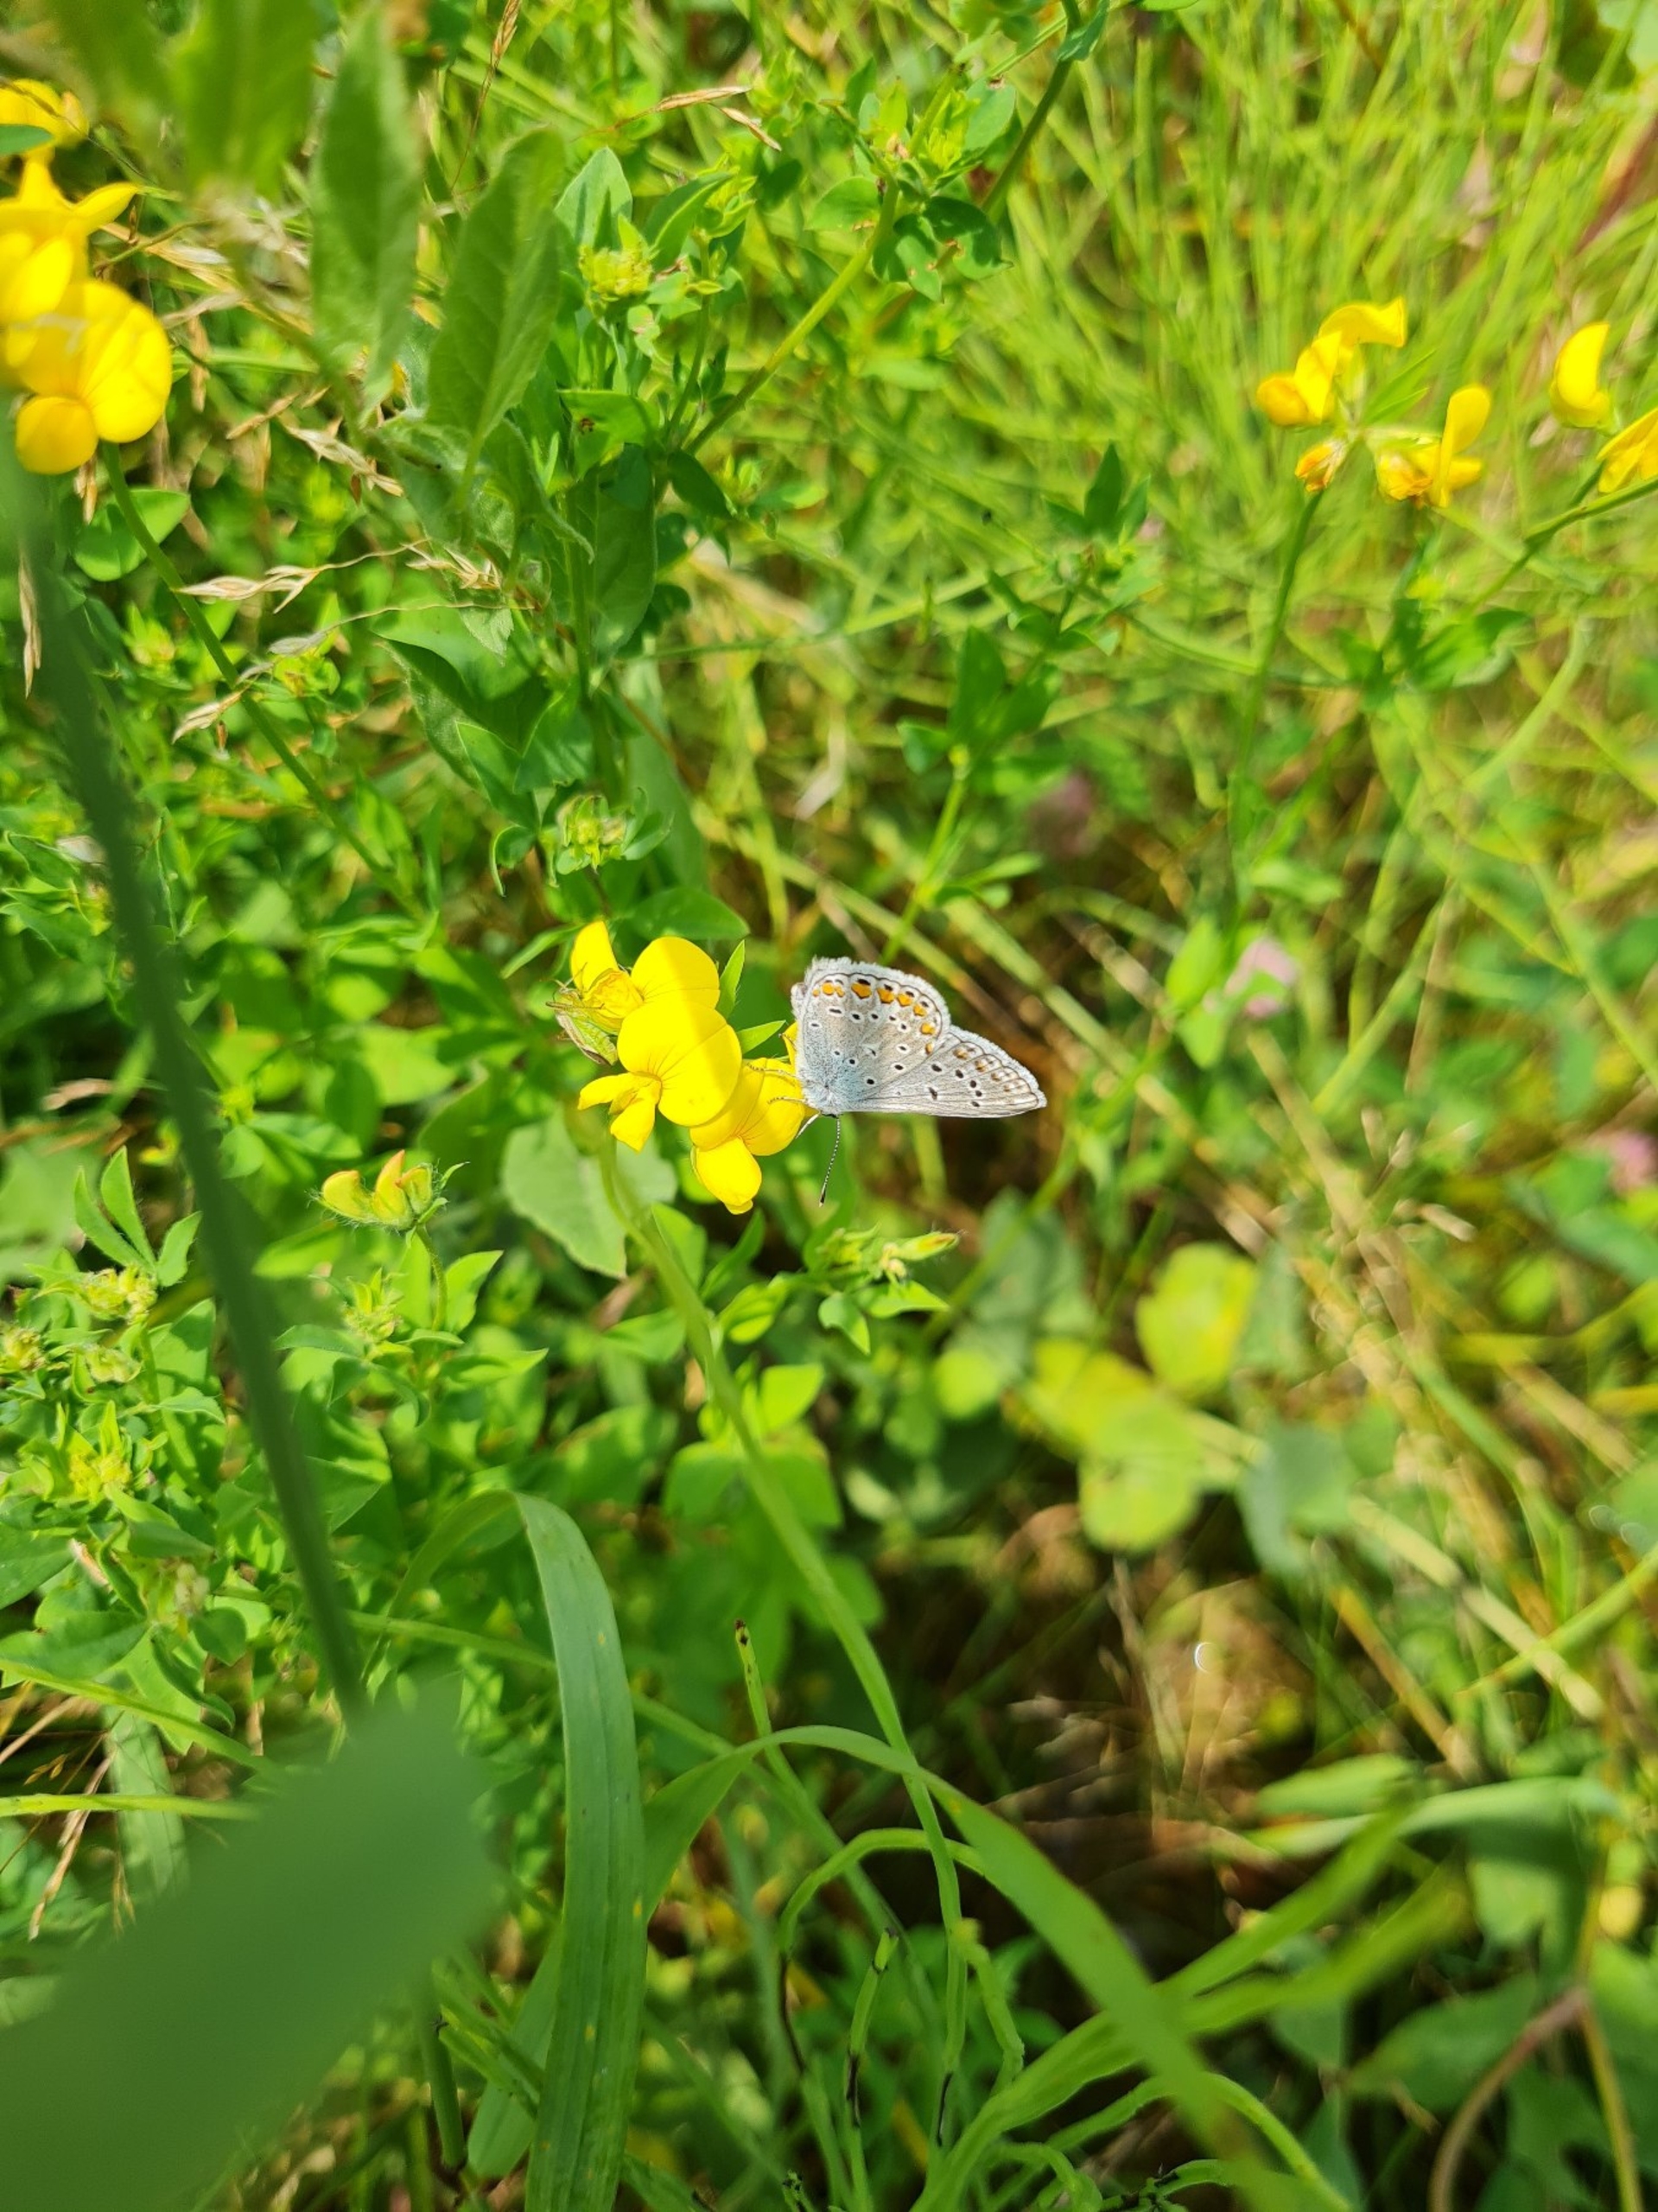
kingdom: Animalia
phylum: Arthropoda
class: Insecta
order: Lepidoptera
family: Lycaenidae
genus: Polyommatus
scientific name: Polyommatus icarus
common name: Almindelig blåfugl
